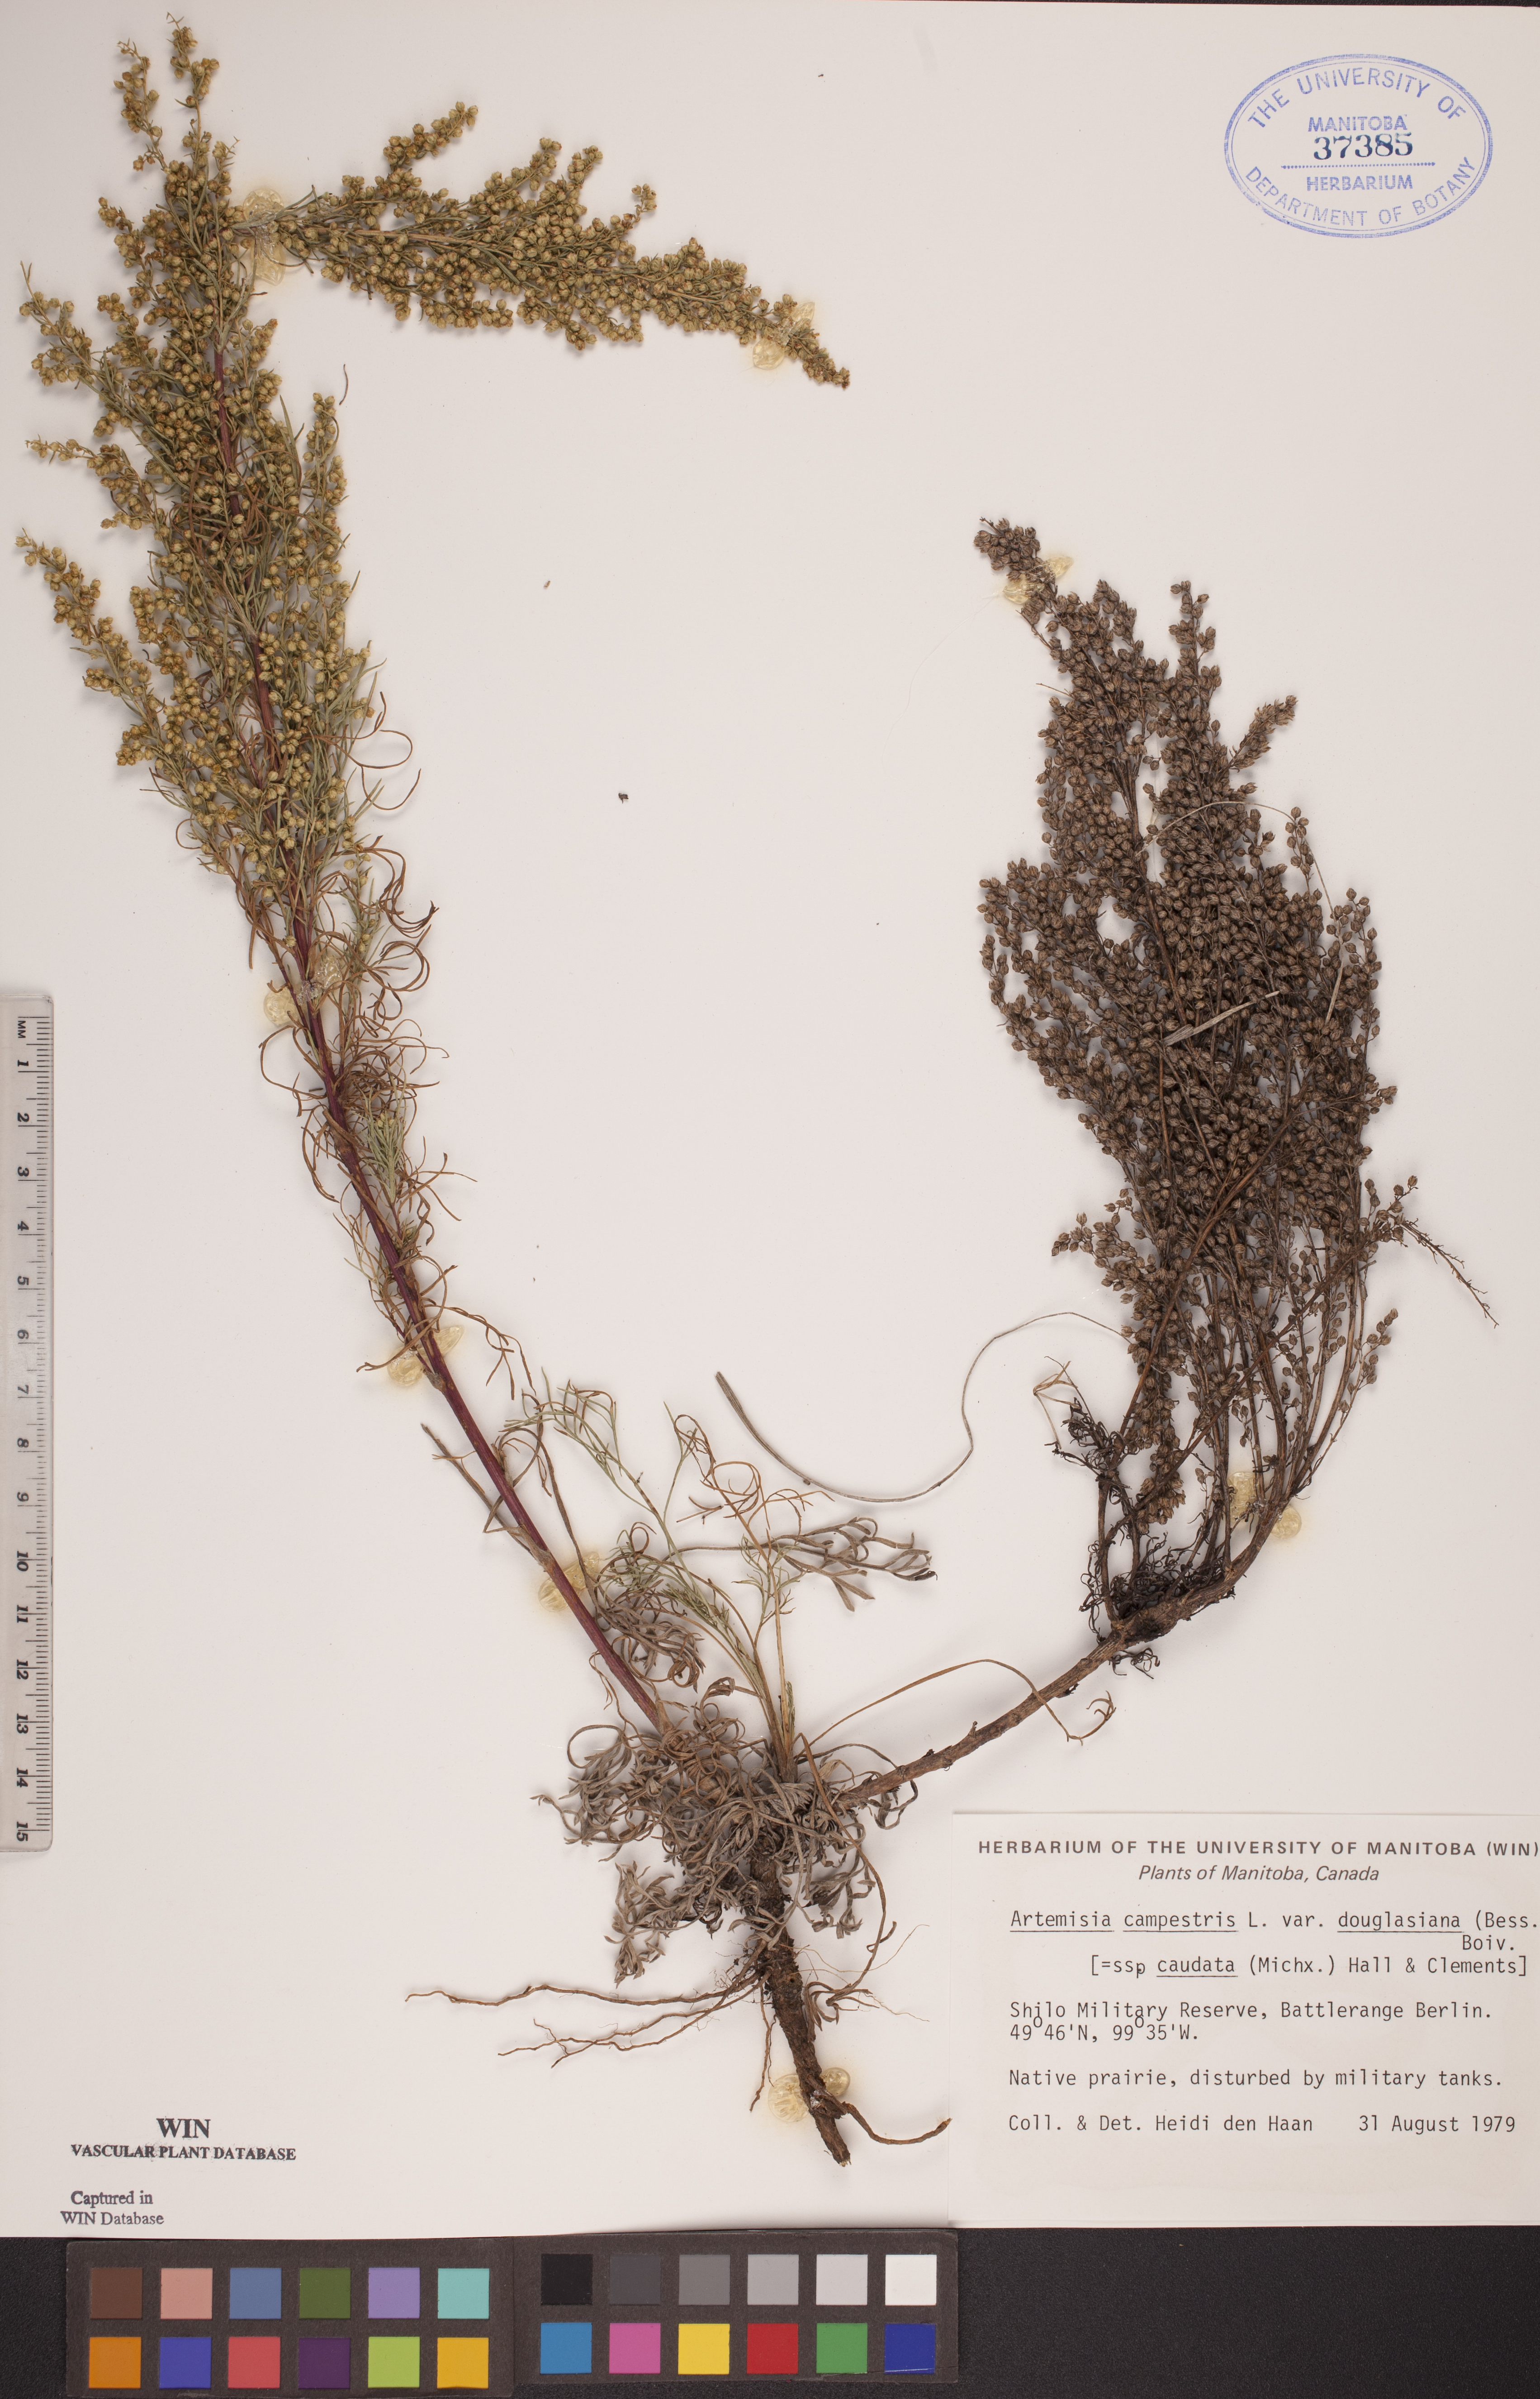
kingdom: Plantae
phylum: Tracheophyta
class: Magnoliopsida
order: Asterales
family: Asteraceae
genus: Artemisia
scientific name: Artemisia douglasiana
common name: Northwest mugwort
